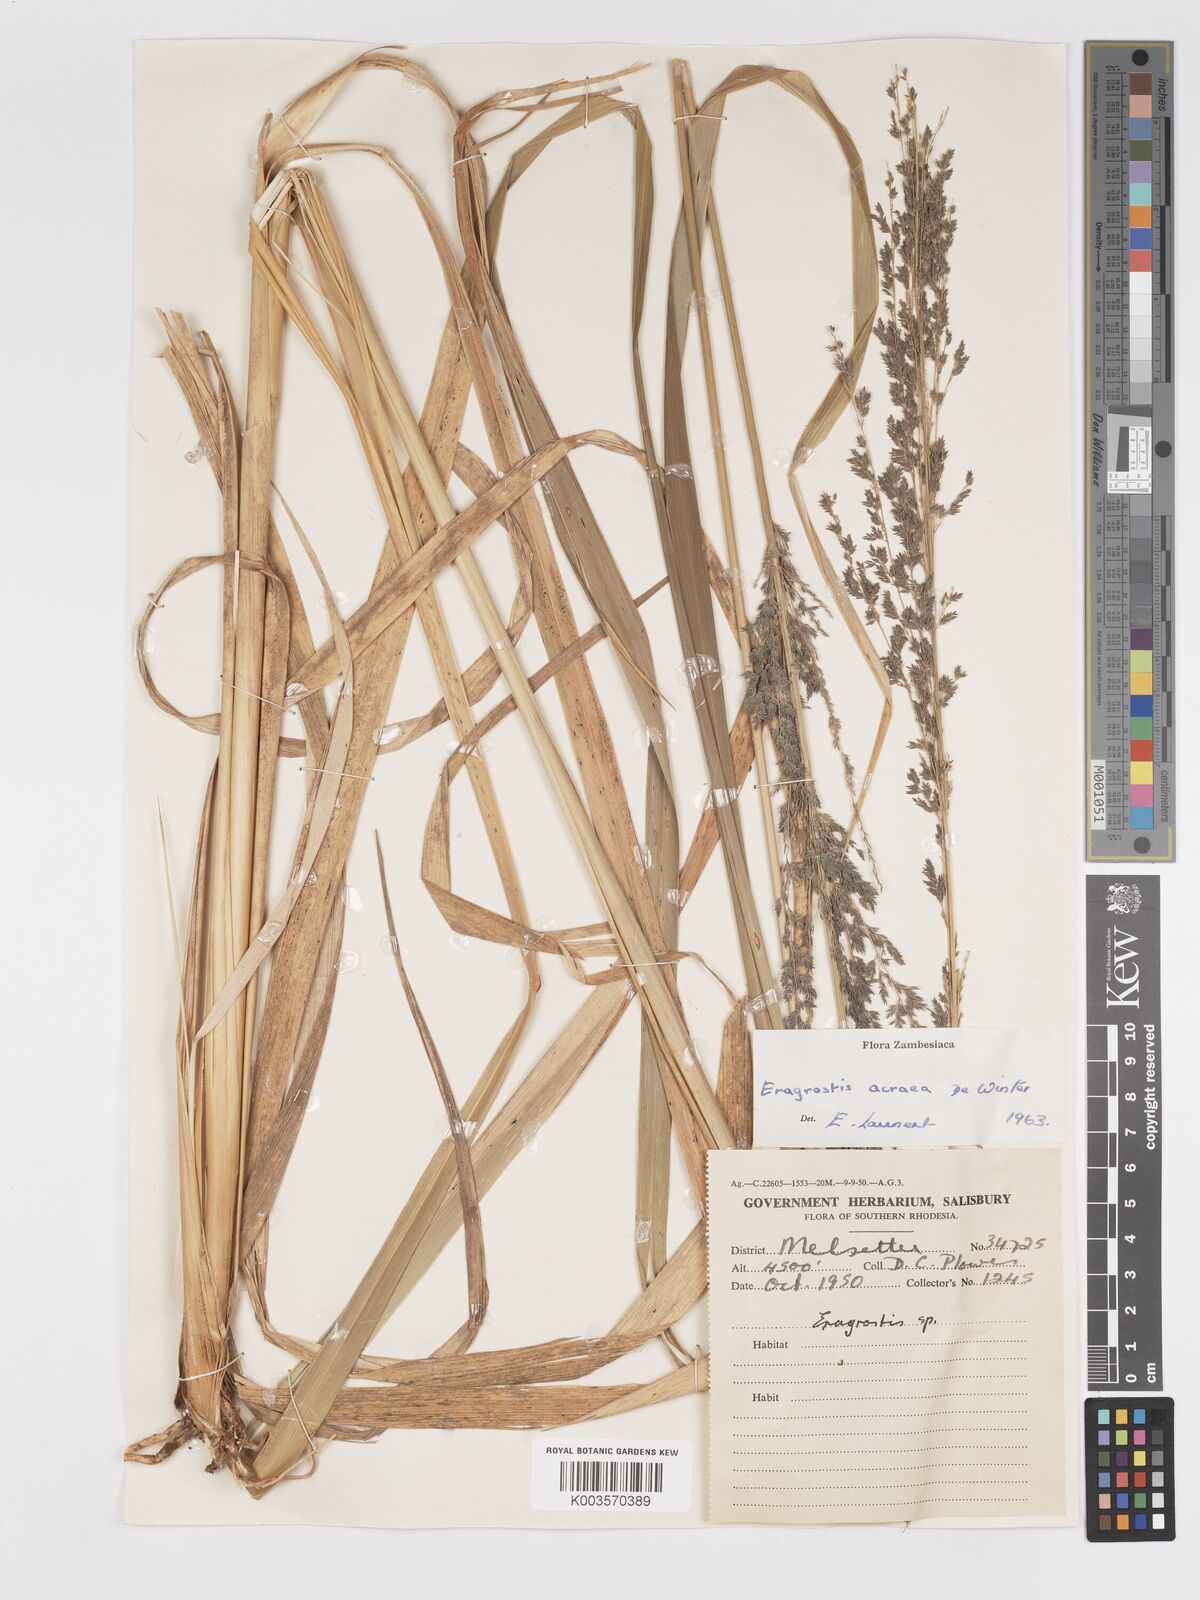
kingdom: Plantae
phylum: Tracheophyta
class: Liliopsida
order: Poales
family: Poaceae
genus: Eragrostis
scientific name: Eragrostis acraea
